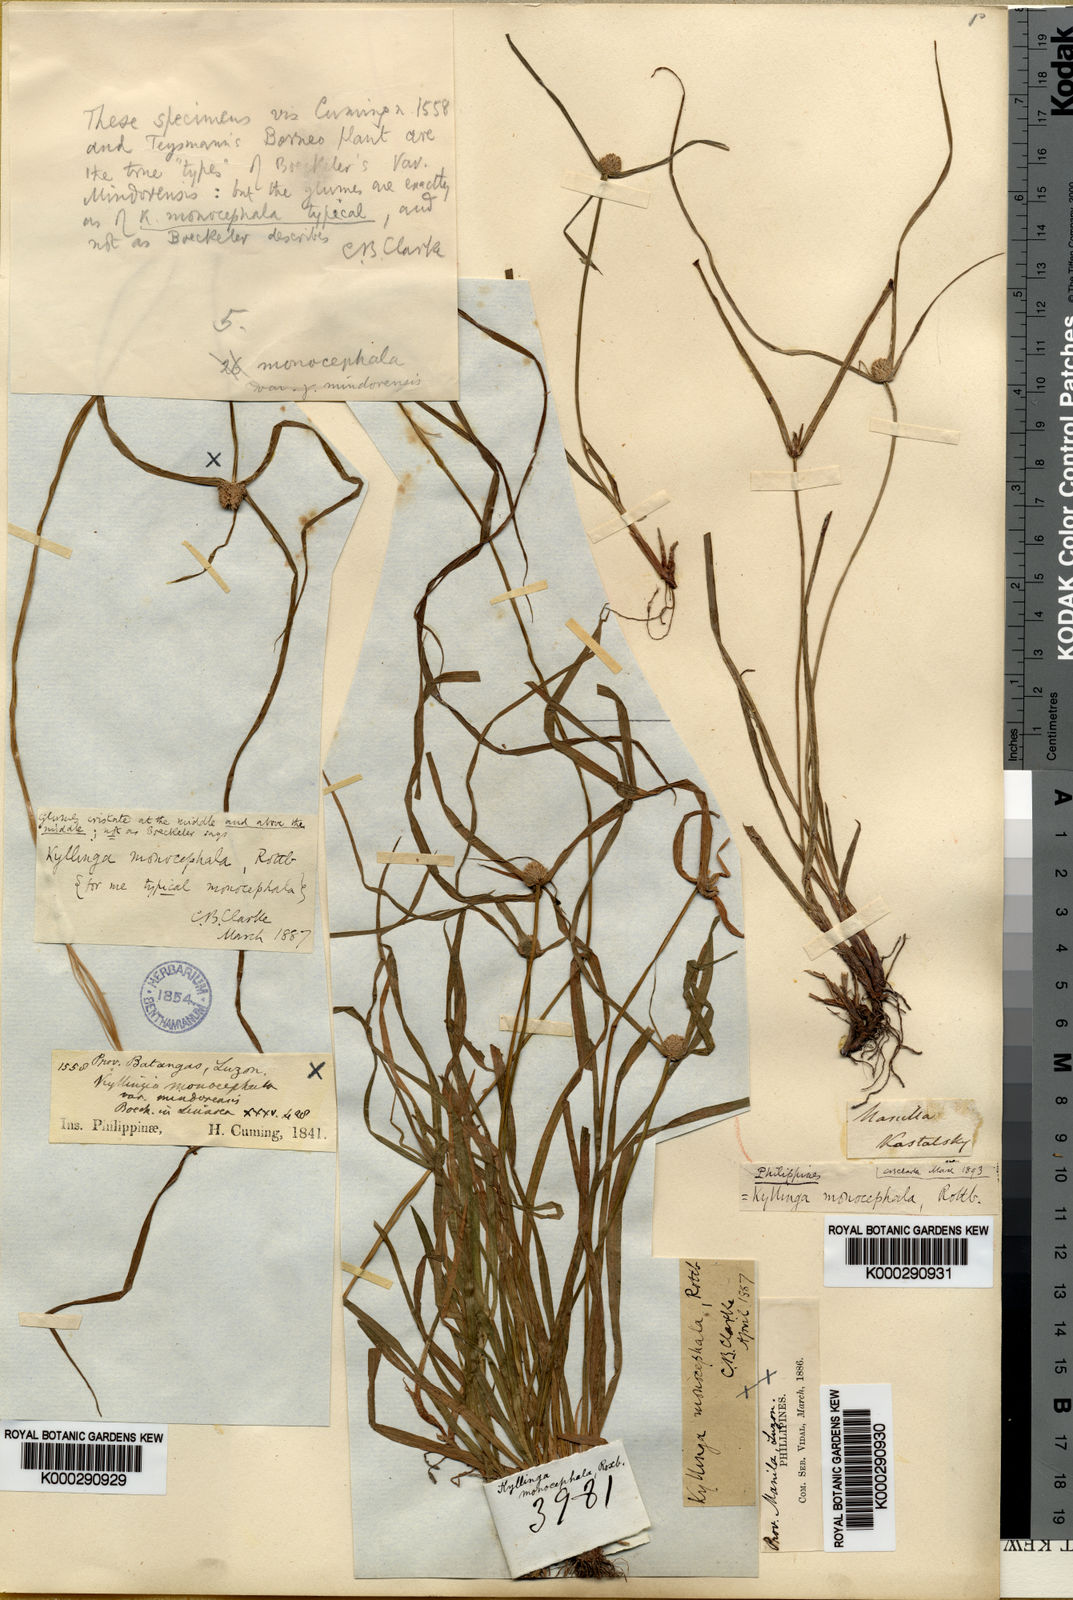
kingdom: Plantae
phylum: Tracheophyta
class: Liliopsida
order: Poales
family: Cyperaceae
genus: Cyperus
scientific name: Cyperus mindorensis
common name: Flatsedge
